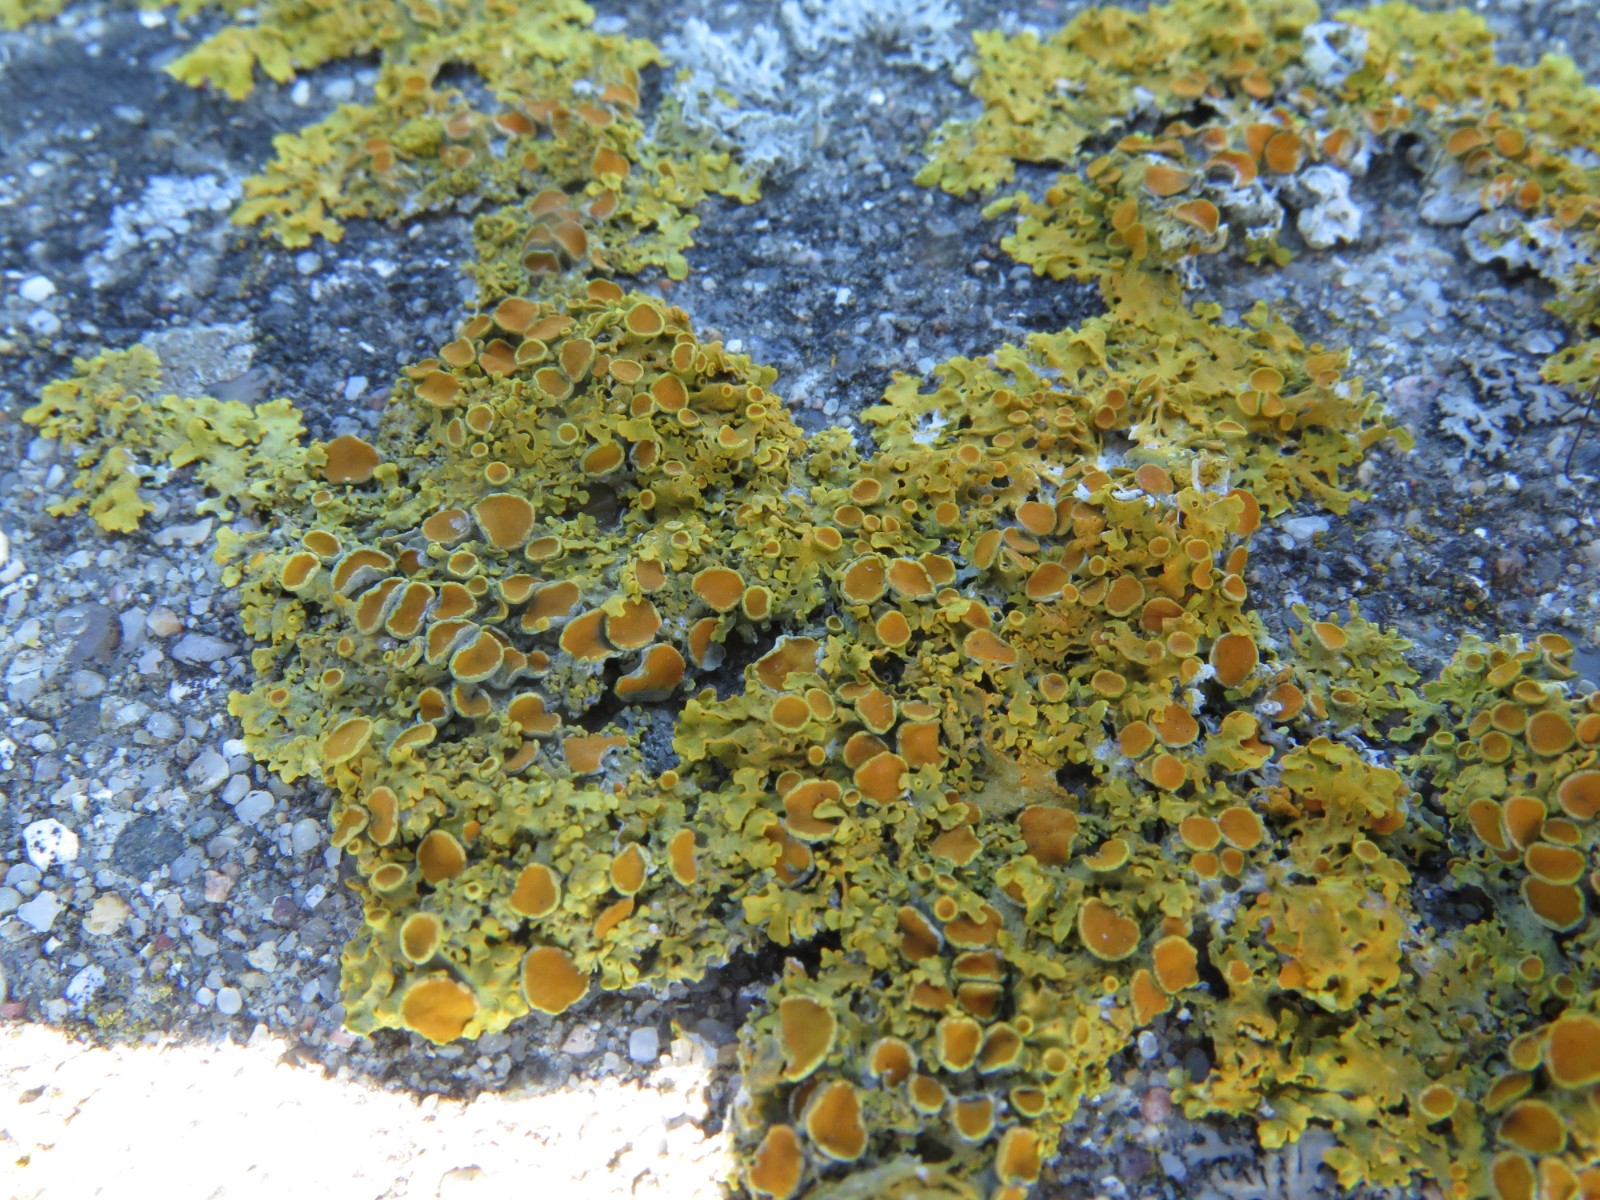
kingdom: Fungi
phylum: Ascomycota
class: Lecanoromycetes
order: Teloschistales
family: Teloschistaceae
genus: Xanthoria
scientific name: Xanthoria parietina
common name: almindelig væggelav
